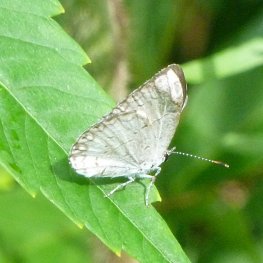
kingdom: Animalia
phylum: Arthropoda
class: Insecta
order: Lepidoptera
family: Lycaenidae
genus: Cyaniris
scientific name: Cyaniris neglecta
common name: Summer Azure
